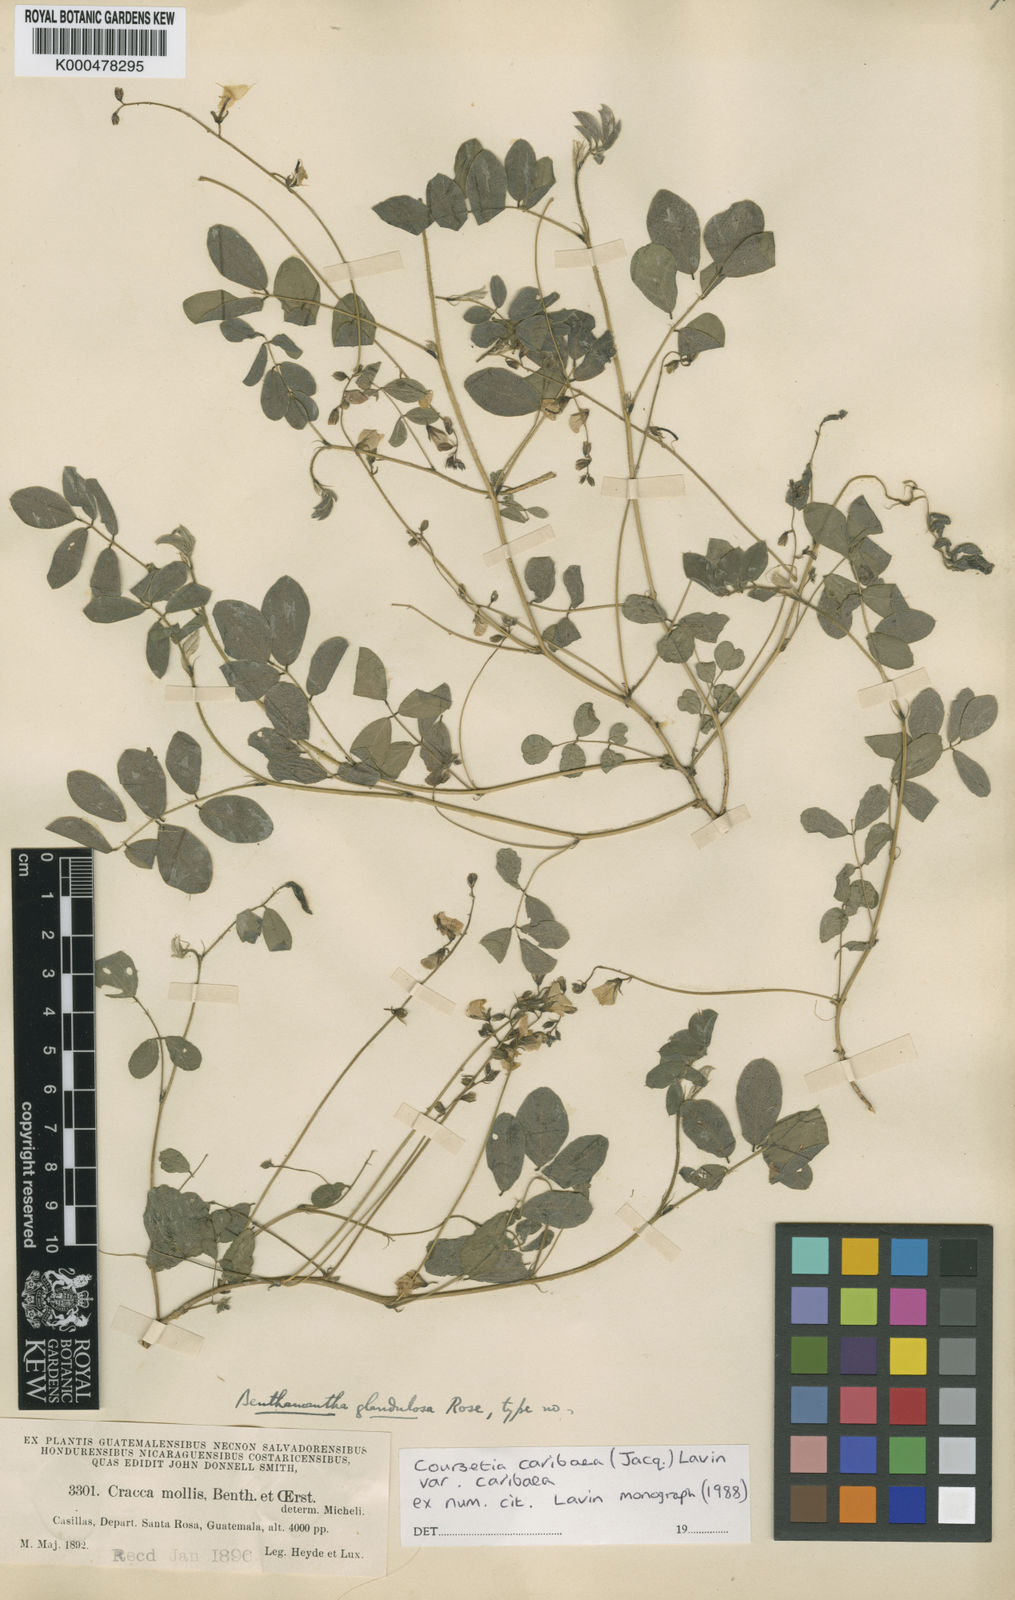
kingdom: Plantae
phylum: Tracheophyta
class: Magnoliopsida
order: Fabales
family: Fabaceae
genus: Coursetia
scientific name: Coursetia caribaea
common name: Anil falso
